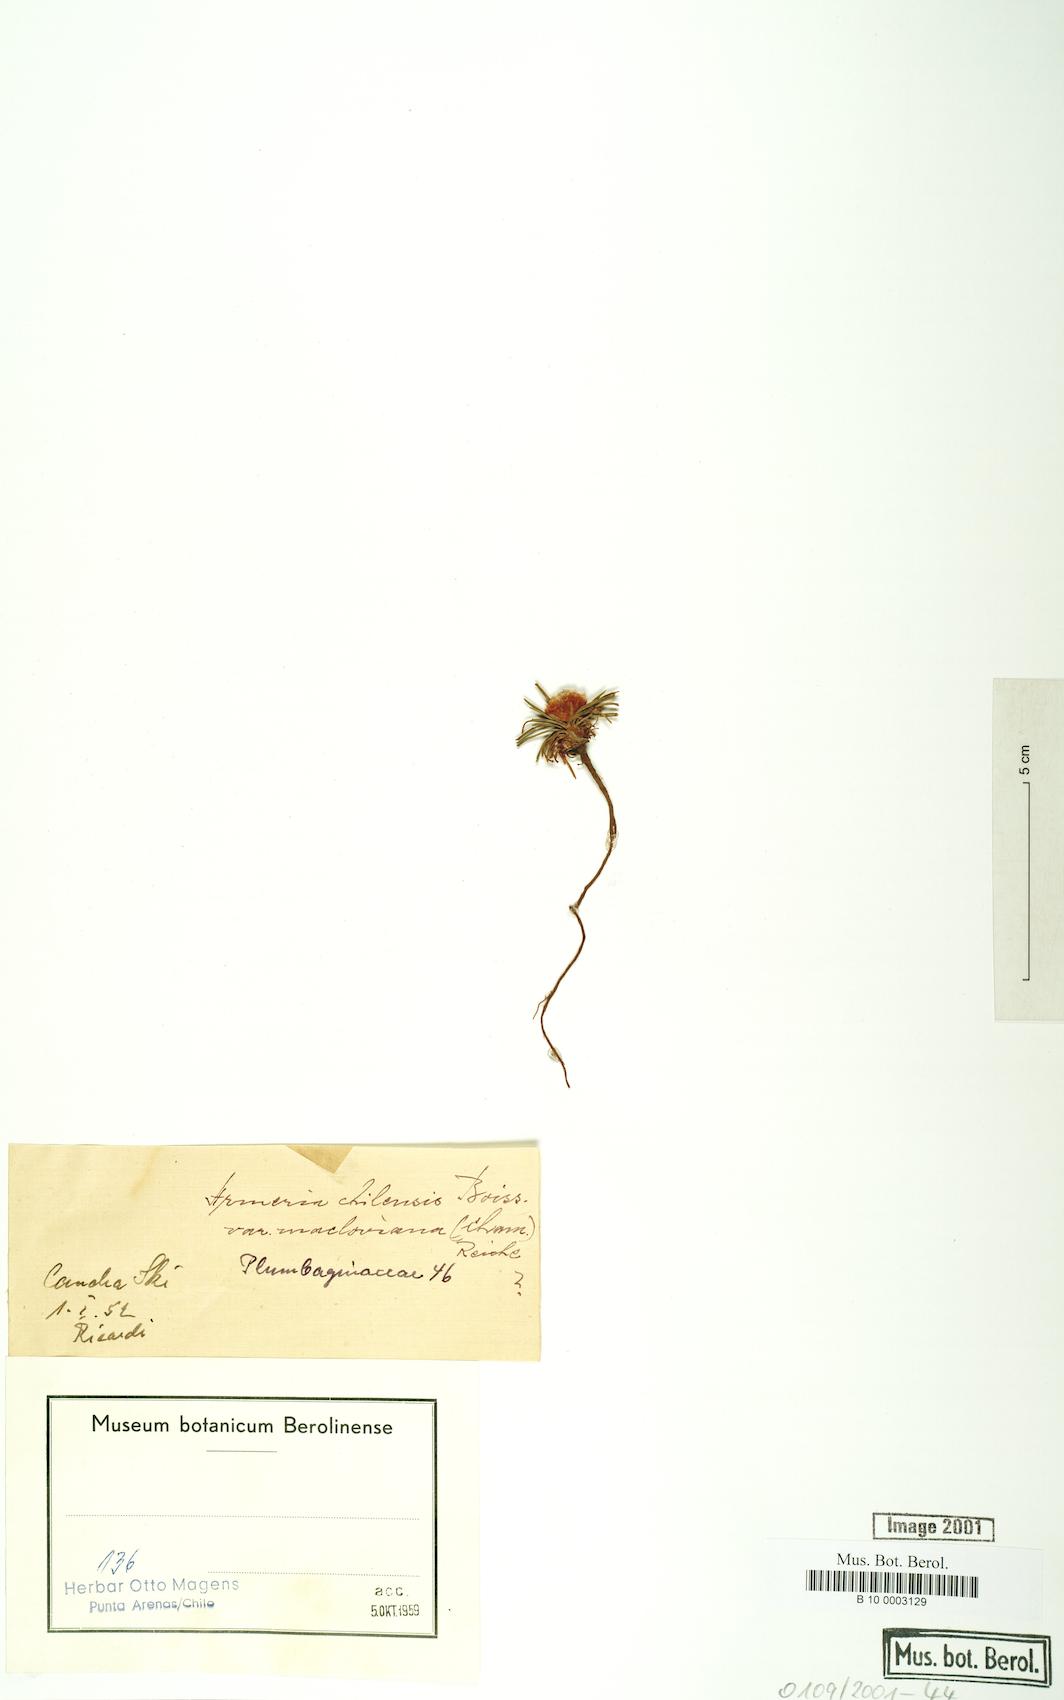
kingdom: Plantae
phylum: Tracheophyta
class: Magnoliopsida
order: Caryophyllales
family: Plumbaginaceae
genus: Armeria
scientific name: Armeria curvifolia
